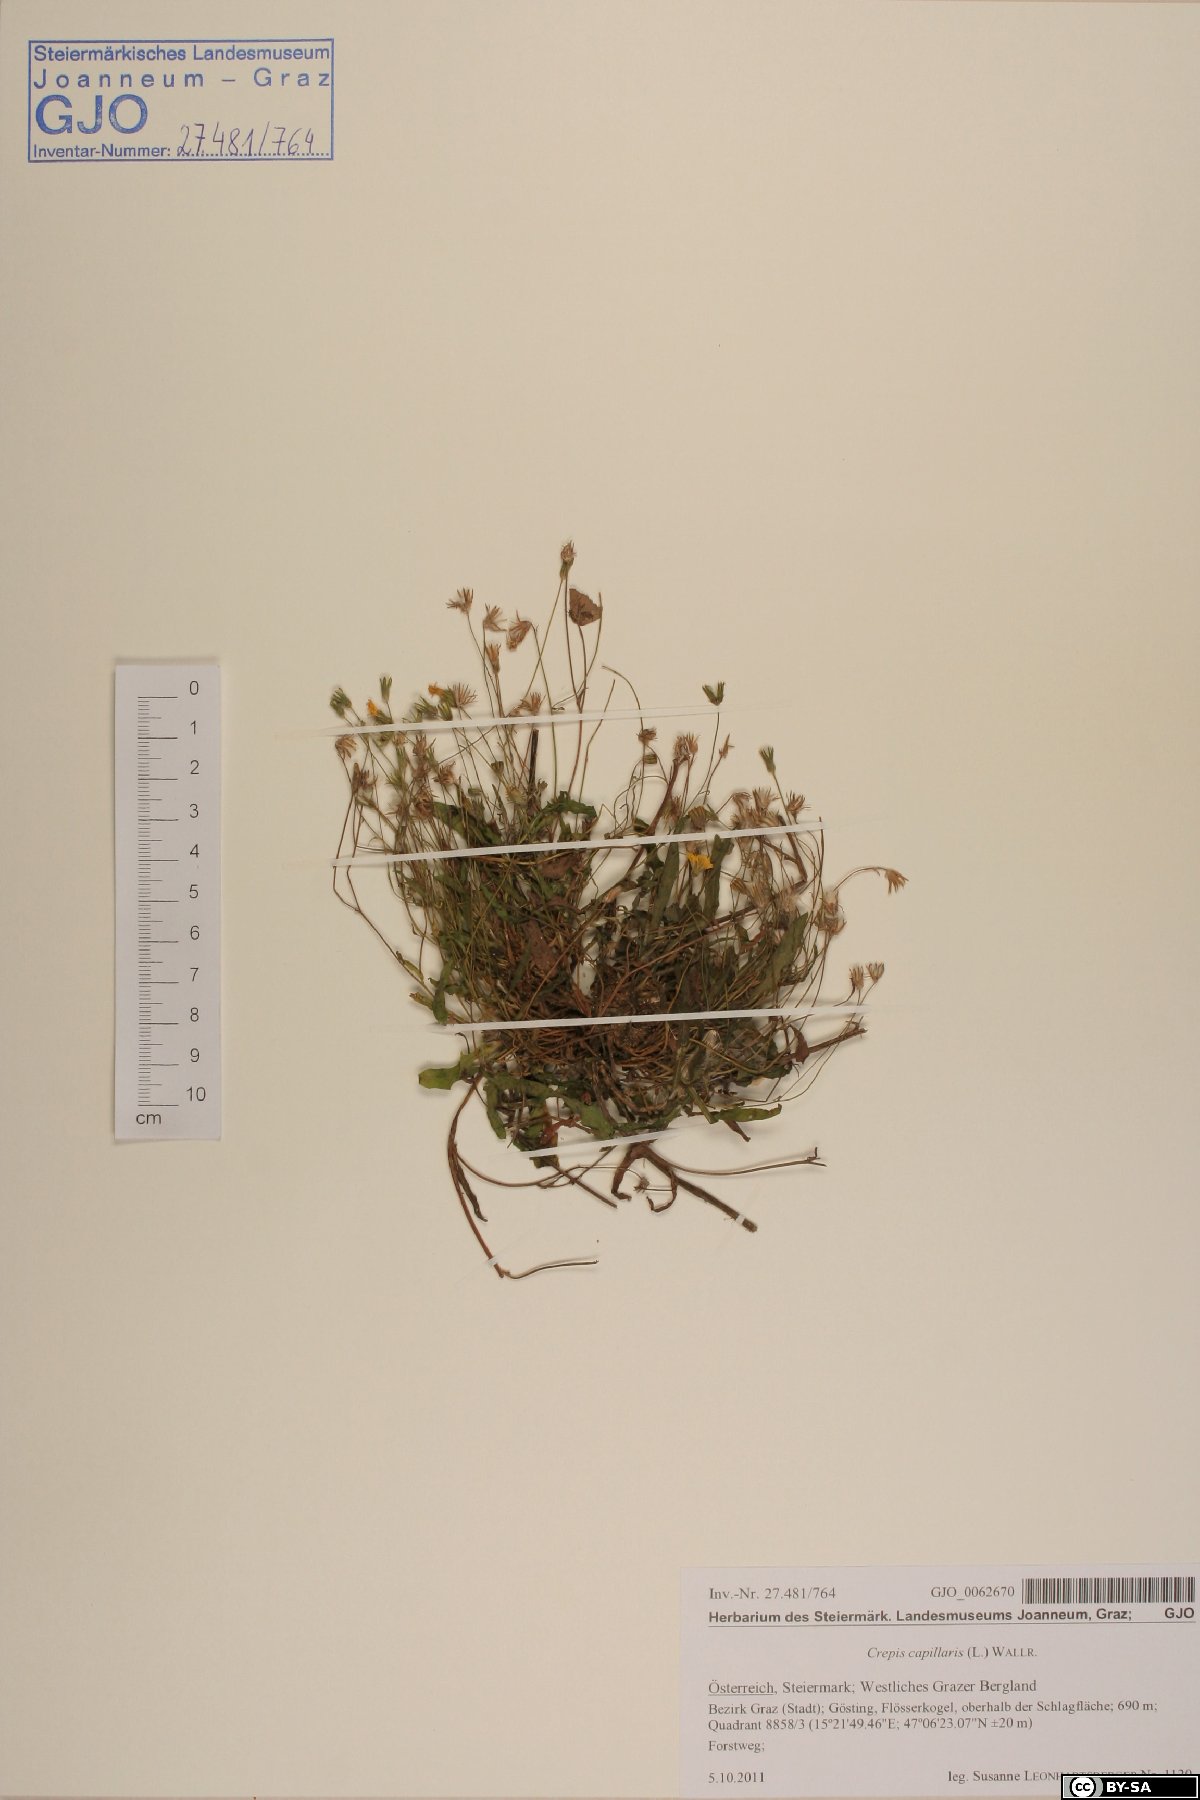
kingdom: Plantae
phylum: Tracheophyta
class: Magnoliopsida
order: Asterales
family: Asteraceae
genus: Crepis
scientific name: Crepis capillaris
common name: Smooth hawksbeard
